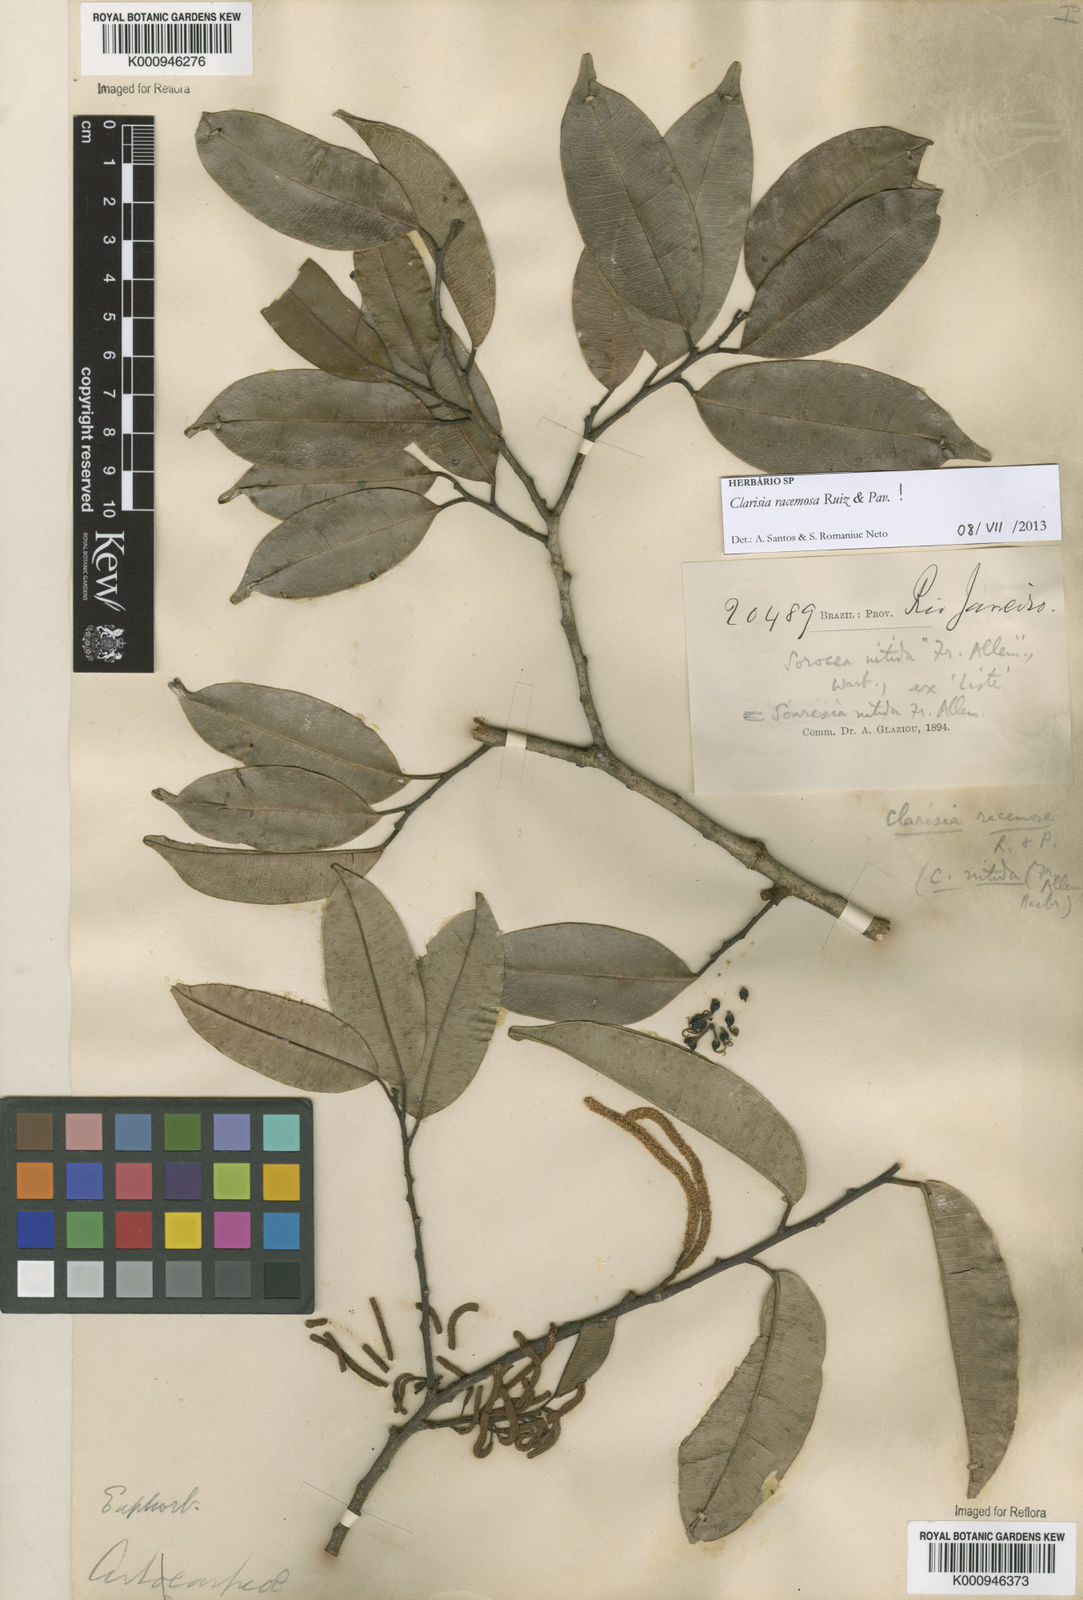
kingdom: Plantae
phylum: Tracheophyta
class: Magnoliopsida
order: Rosales
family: Moraceae
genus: Clarisia
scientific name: Clarisia racemosa
